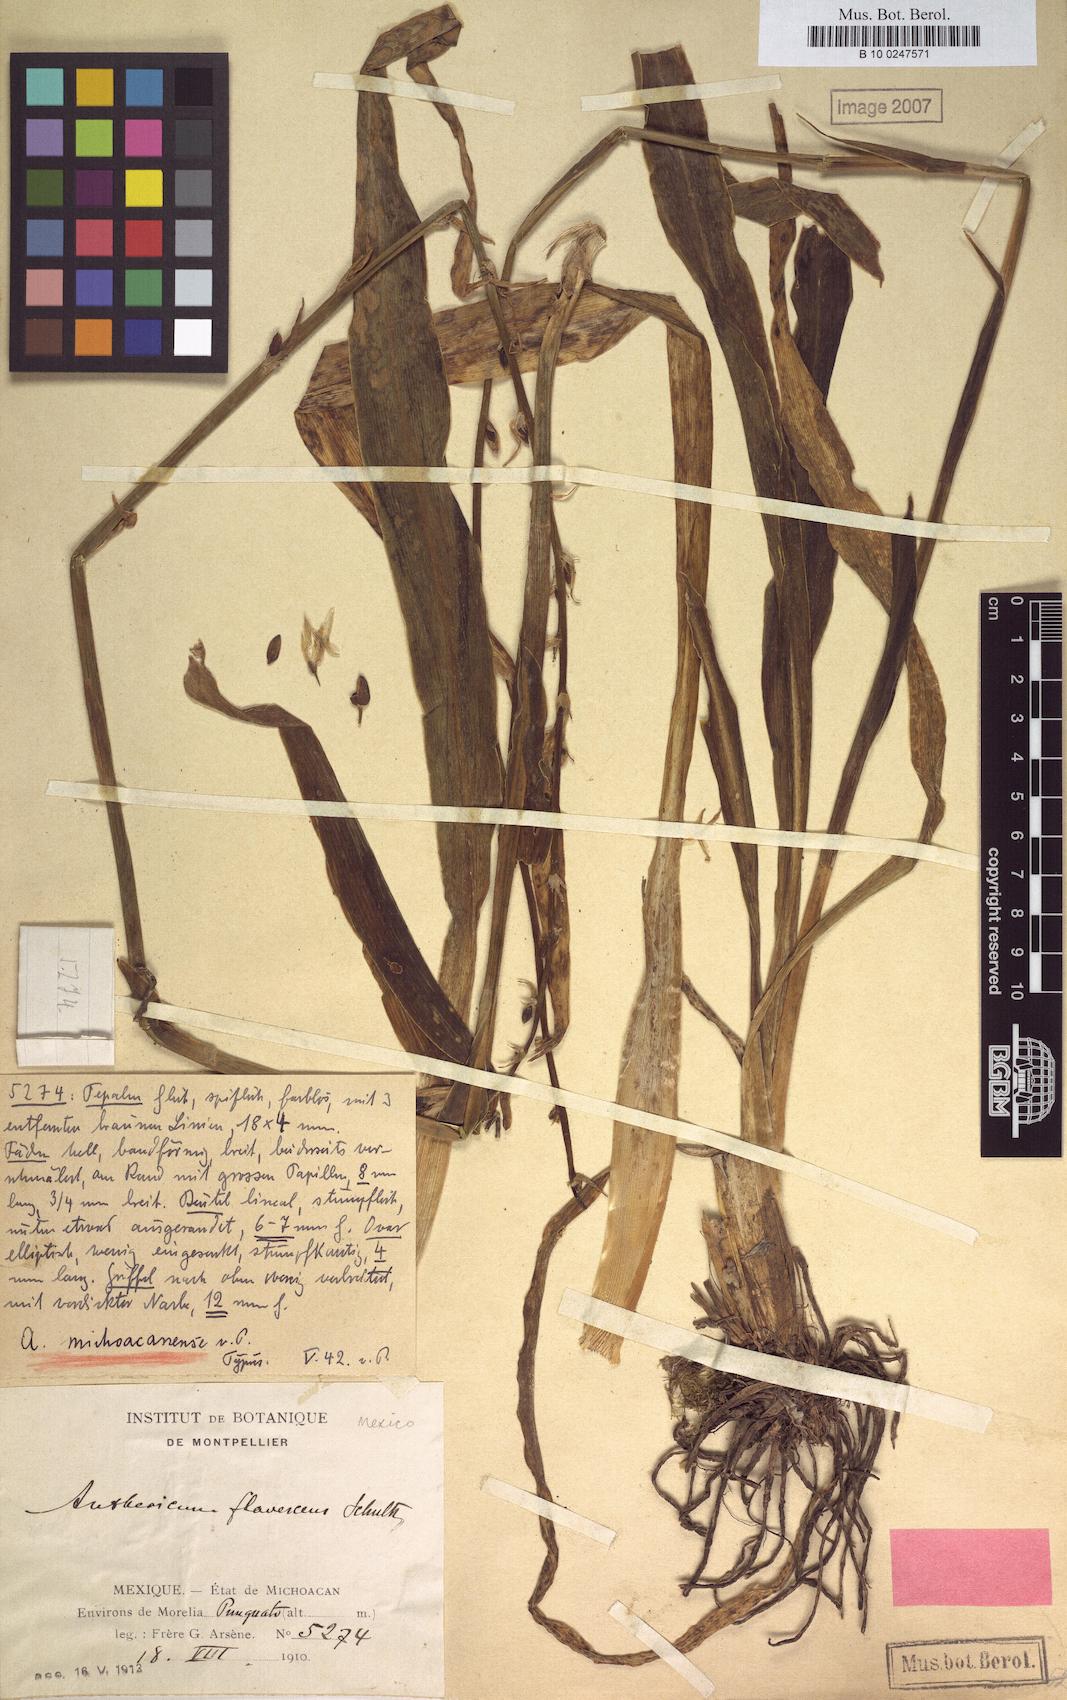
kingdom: Plantae
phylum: Tracheophyta
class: Liliopsida
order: Asparagales
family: Asparagaceae
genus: Anthericum
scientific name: Anthericum
